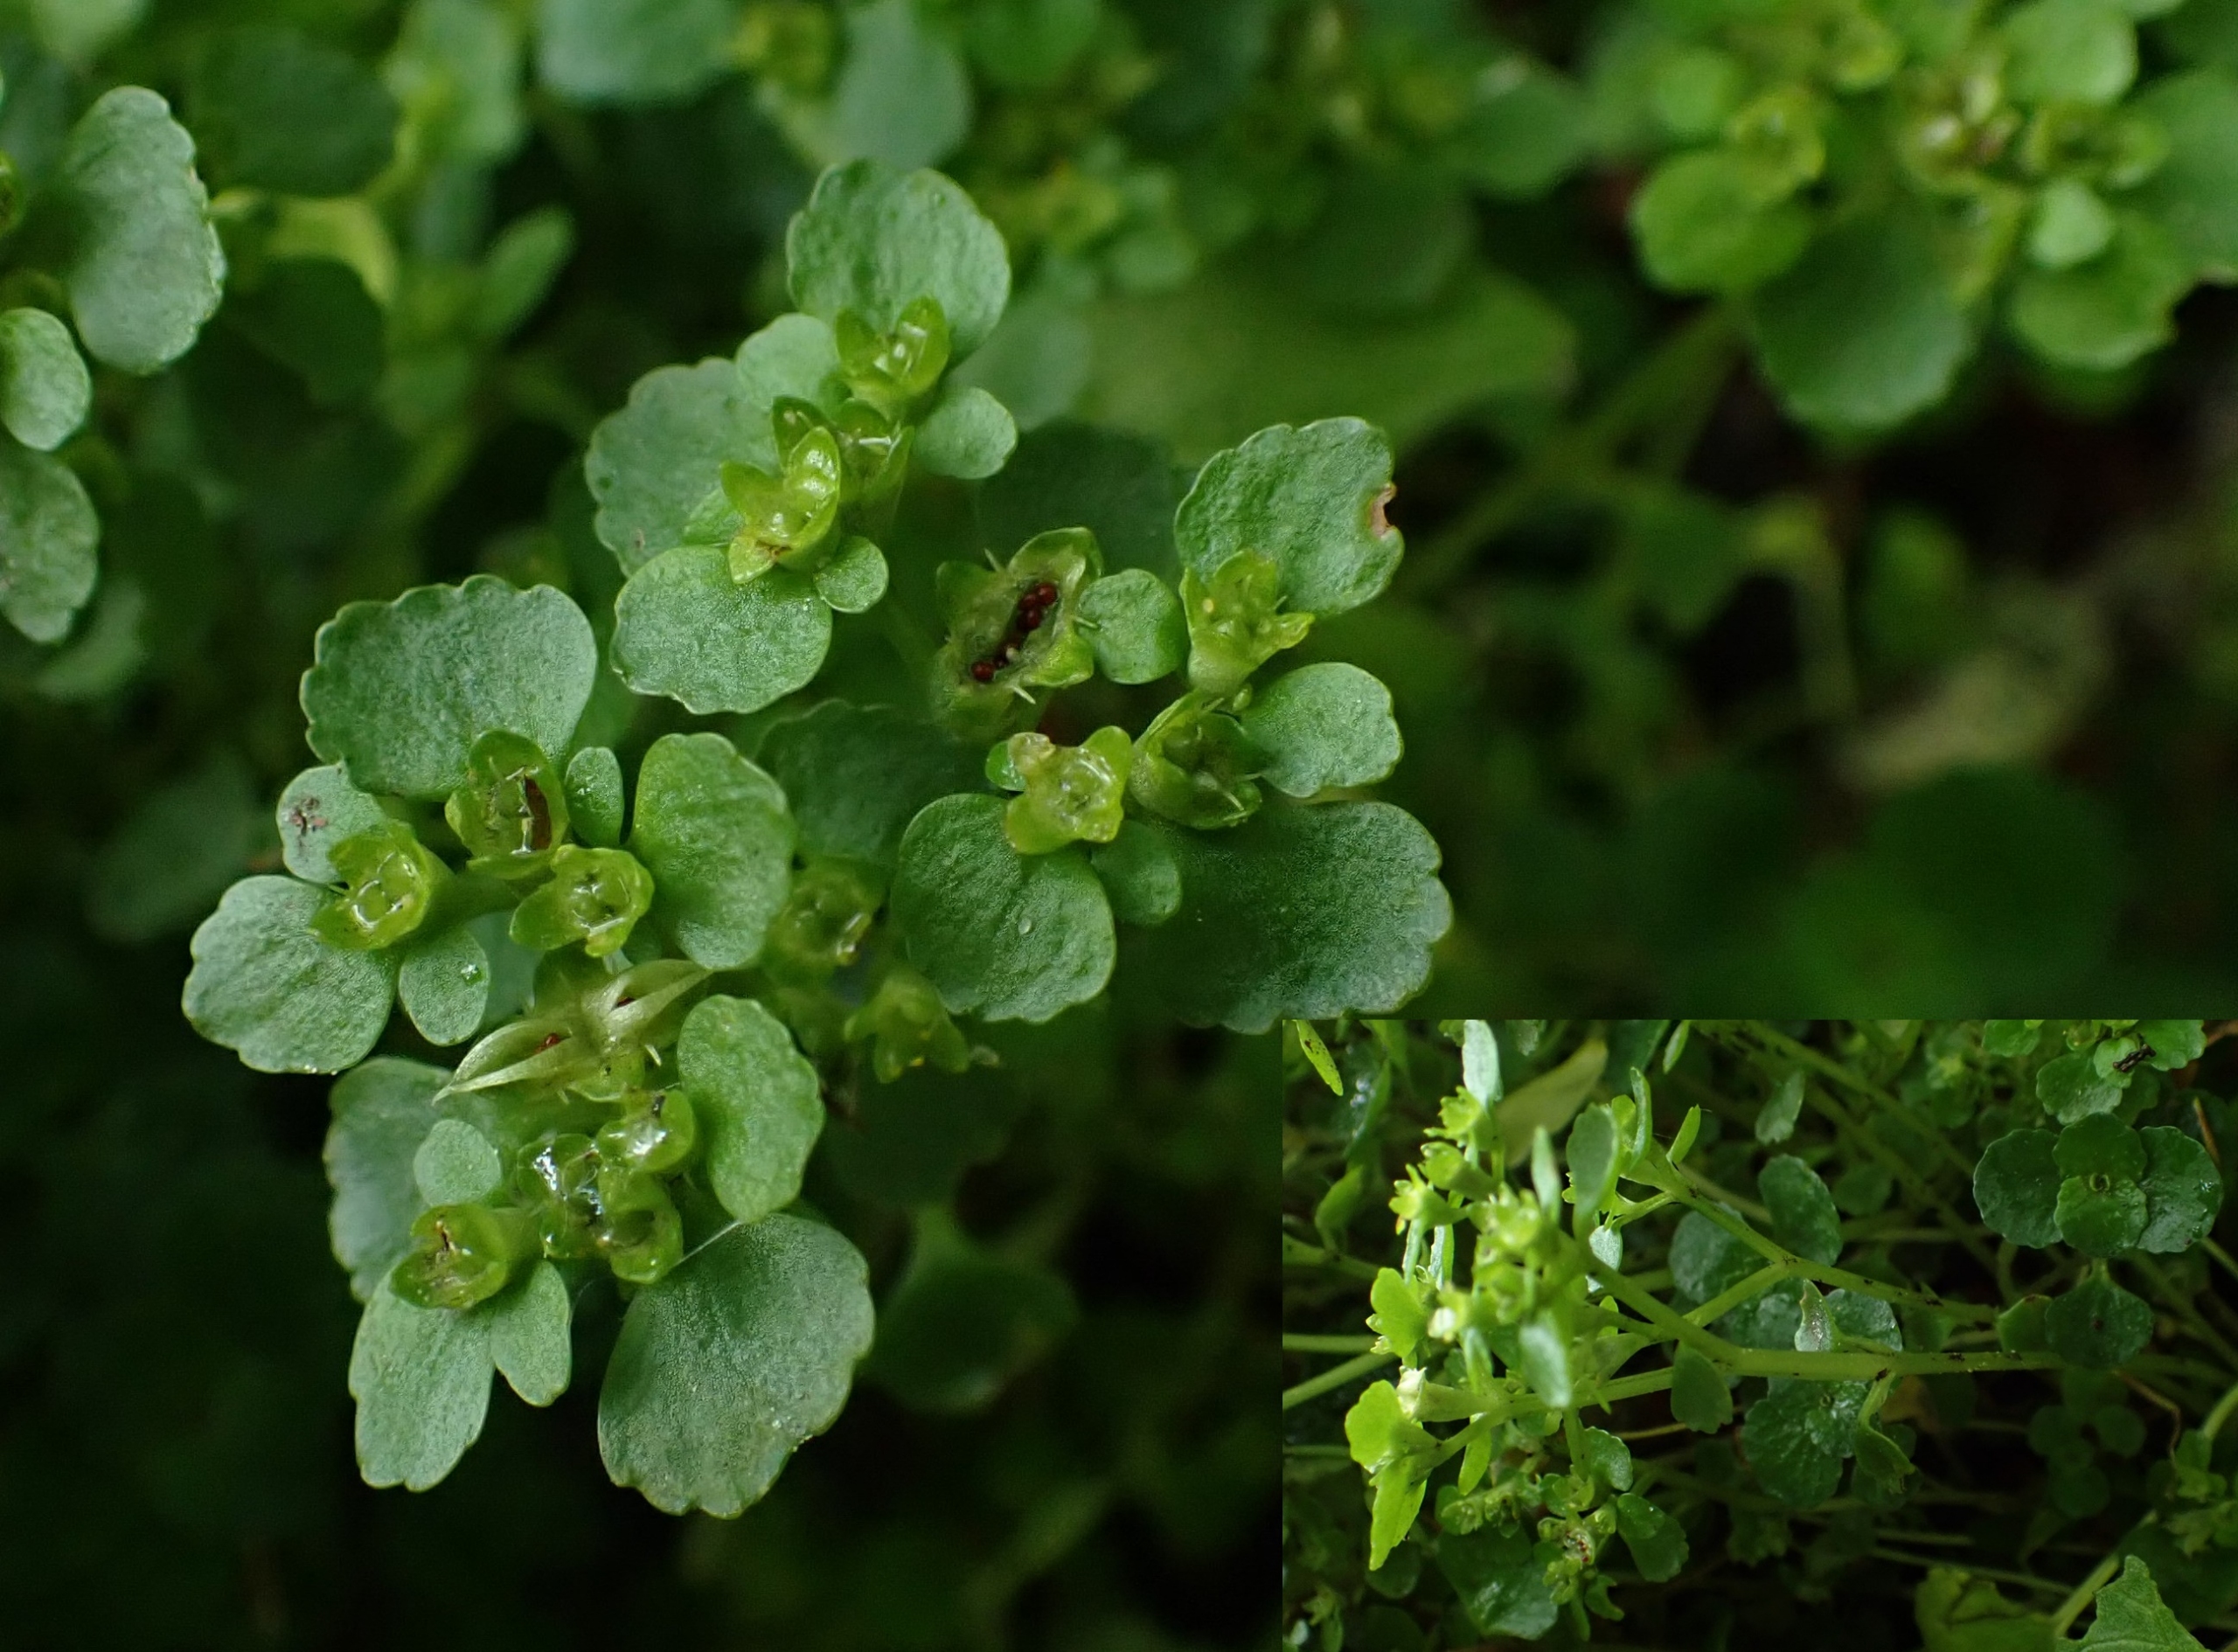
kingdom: Plantae
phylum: Tracheophyta
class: Magnoliopsida
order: Saxifragales
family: Saxifragaceae
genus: Chrysosplenium
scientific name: Chrysosplenium oppositifolium
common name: Småbladet milturt
